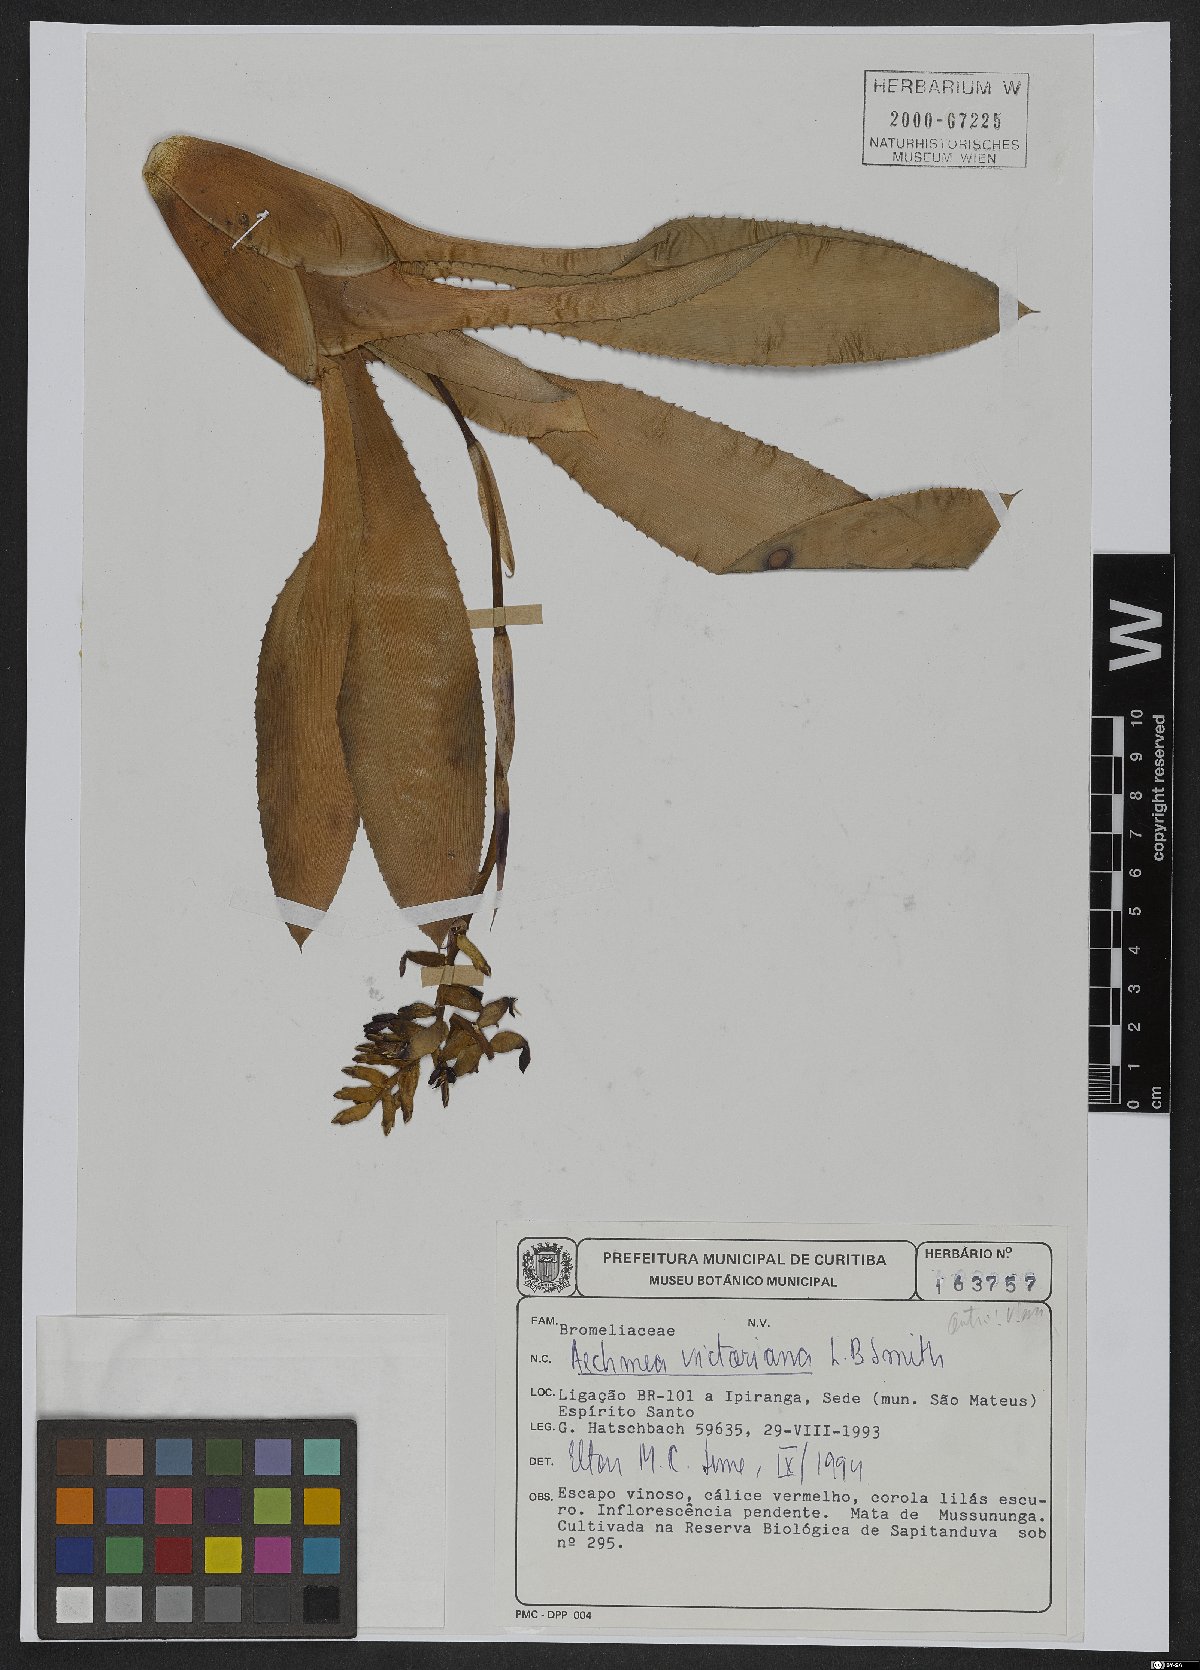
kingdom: Plantae
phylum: Tracheophyta
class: Liliopsida
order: Poales
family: Bromeliaceae
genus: Aechmea
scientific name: Aechmea victoriana
